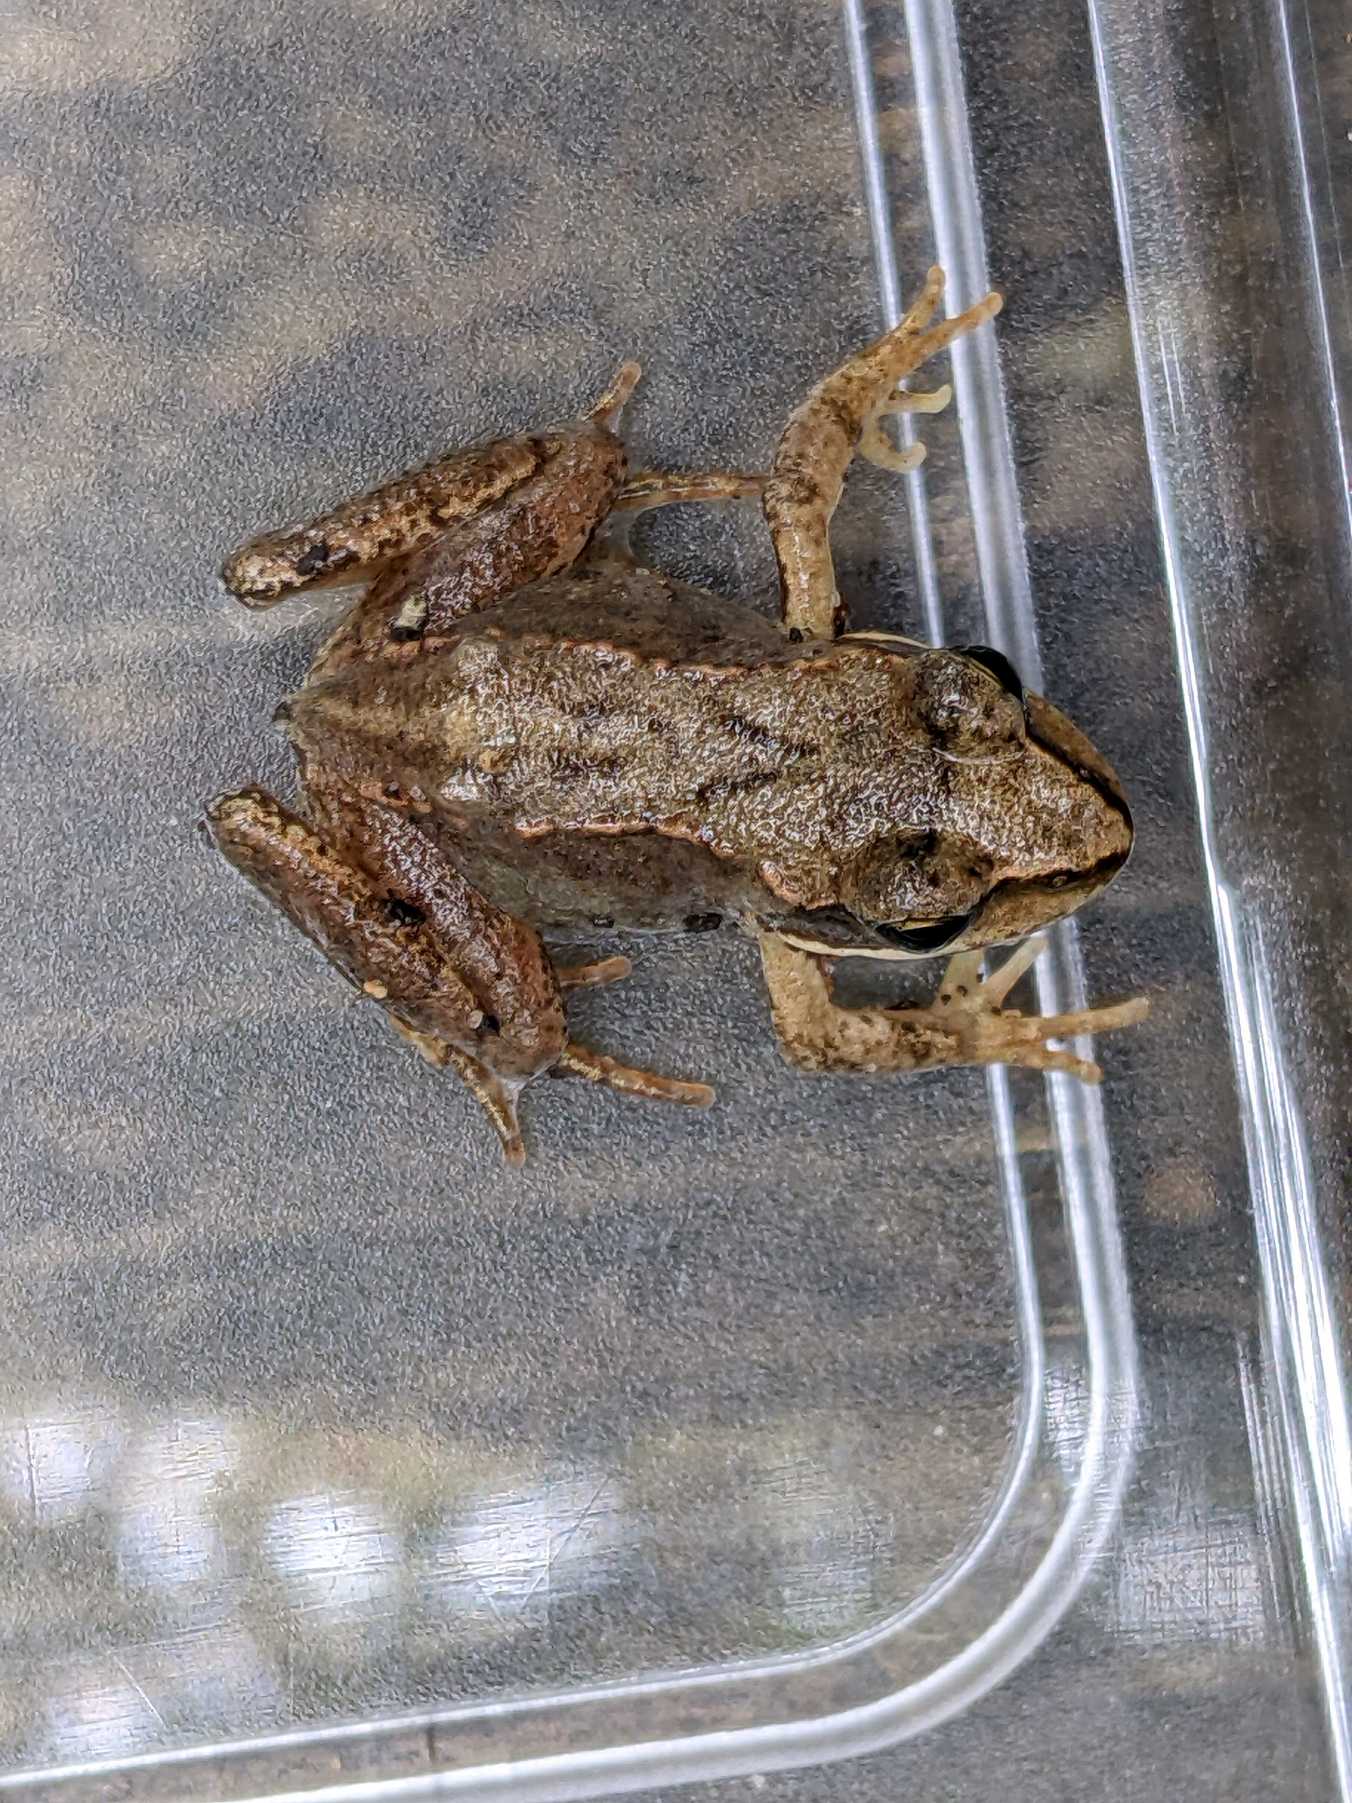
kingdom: Animalia
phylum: Chordata
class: Amphibia
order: Anura
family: Ranidae
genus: Rana
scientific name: Rana temporaria
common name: Butsnudet frø
